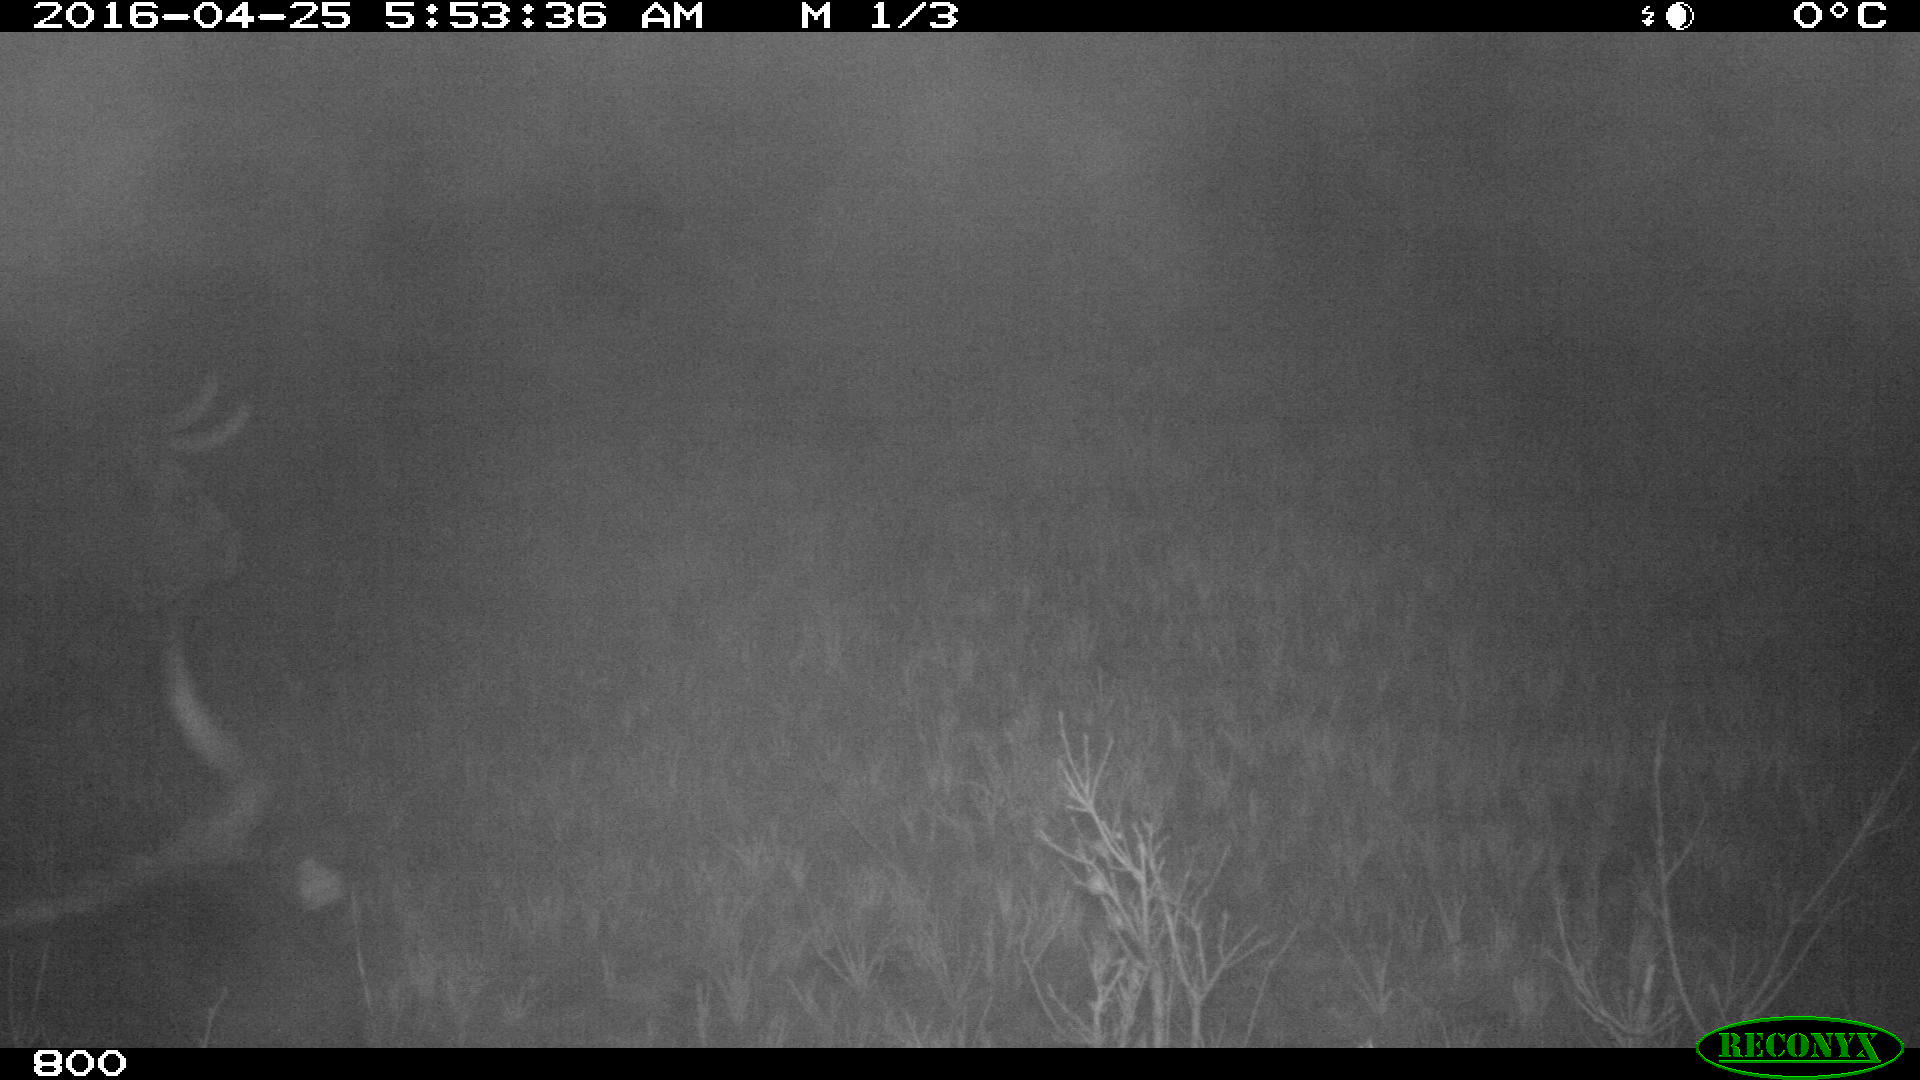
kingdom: Animalia
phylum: Chordata
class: Mammalia
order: Artiodactyla
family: Bovidae
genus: Bos
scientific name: Bos taurus
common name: Domesticated cattle
